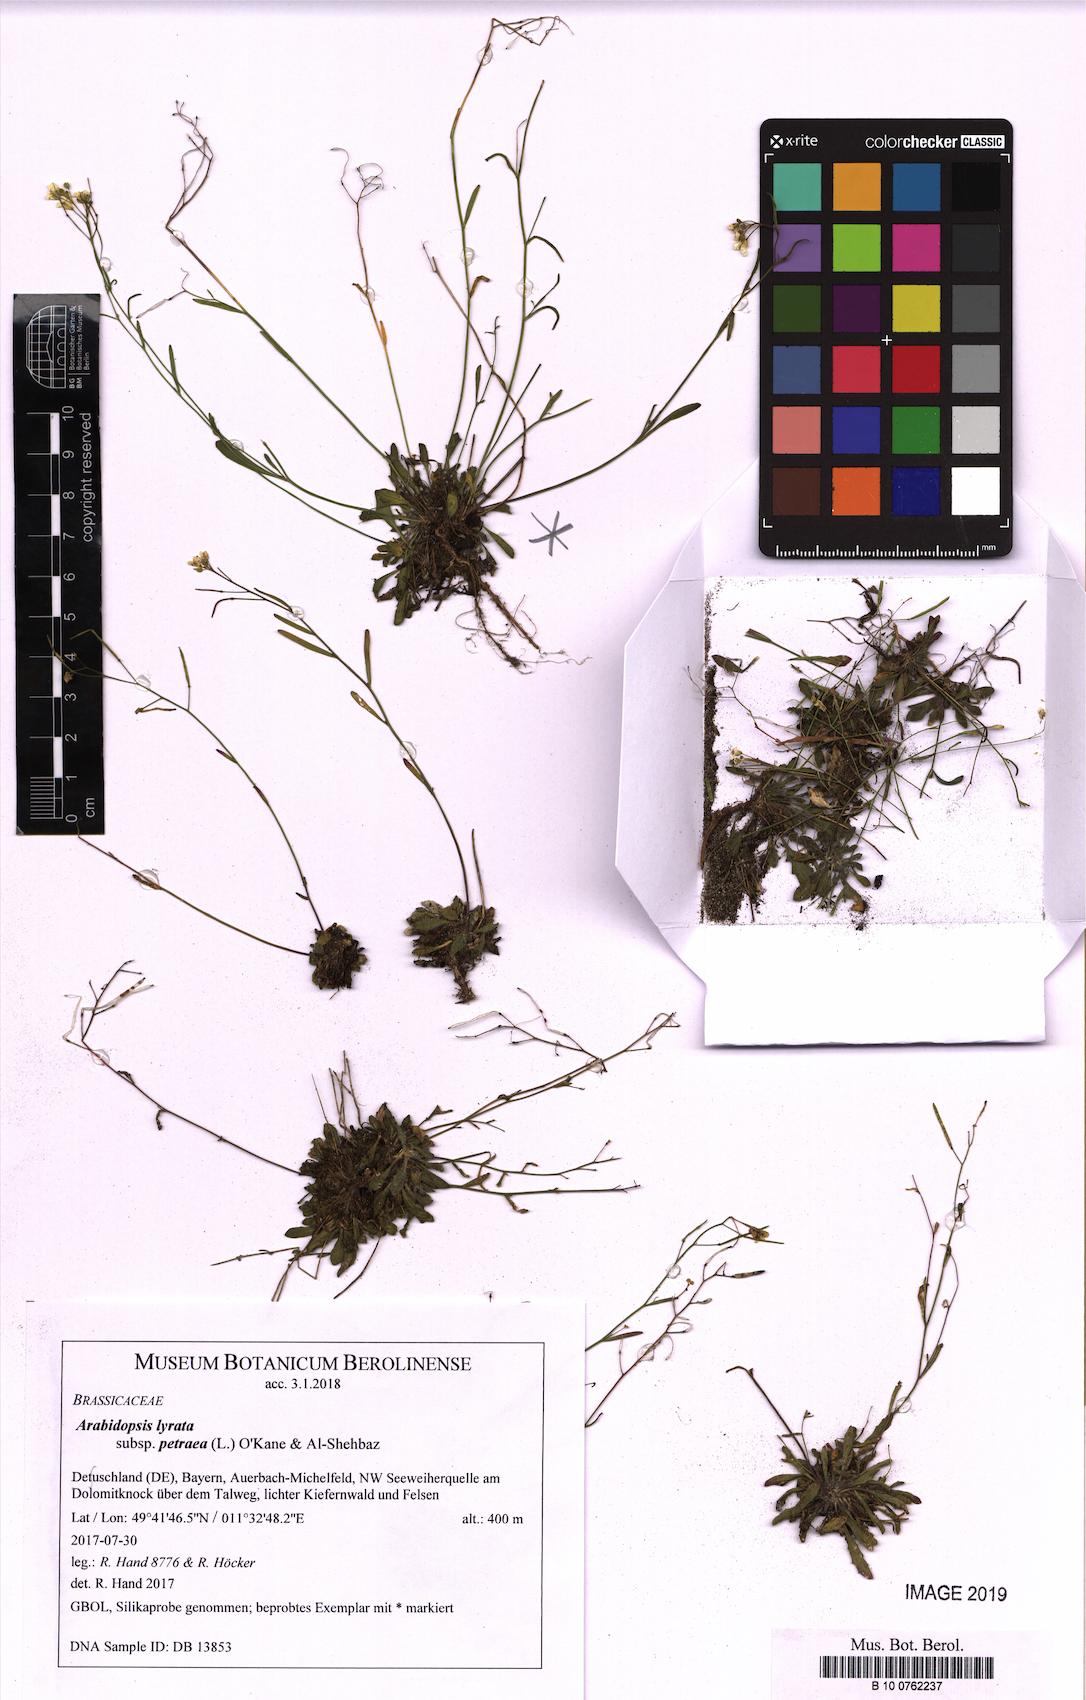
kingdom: Plantae
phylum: Tracheophyta
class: Magnoliopsida
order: Brassicales
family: Brassicaceae
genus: Arabidopsis
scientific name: Arabidopsis lyrata
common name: Lyrate rockcress
